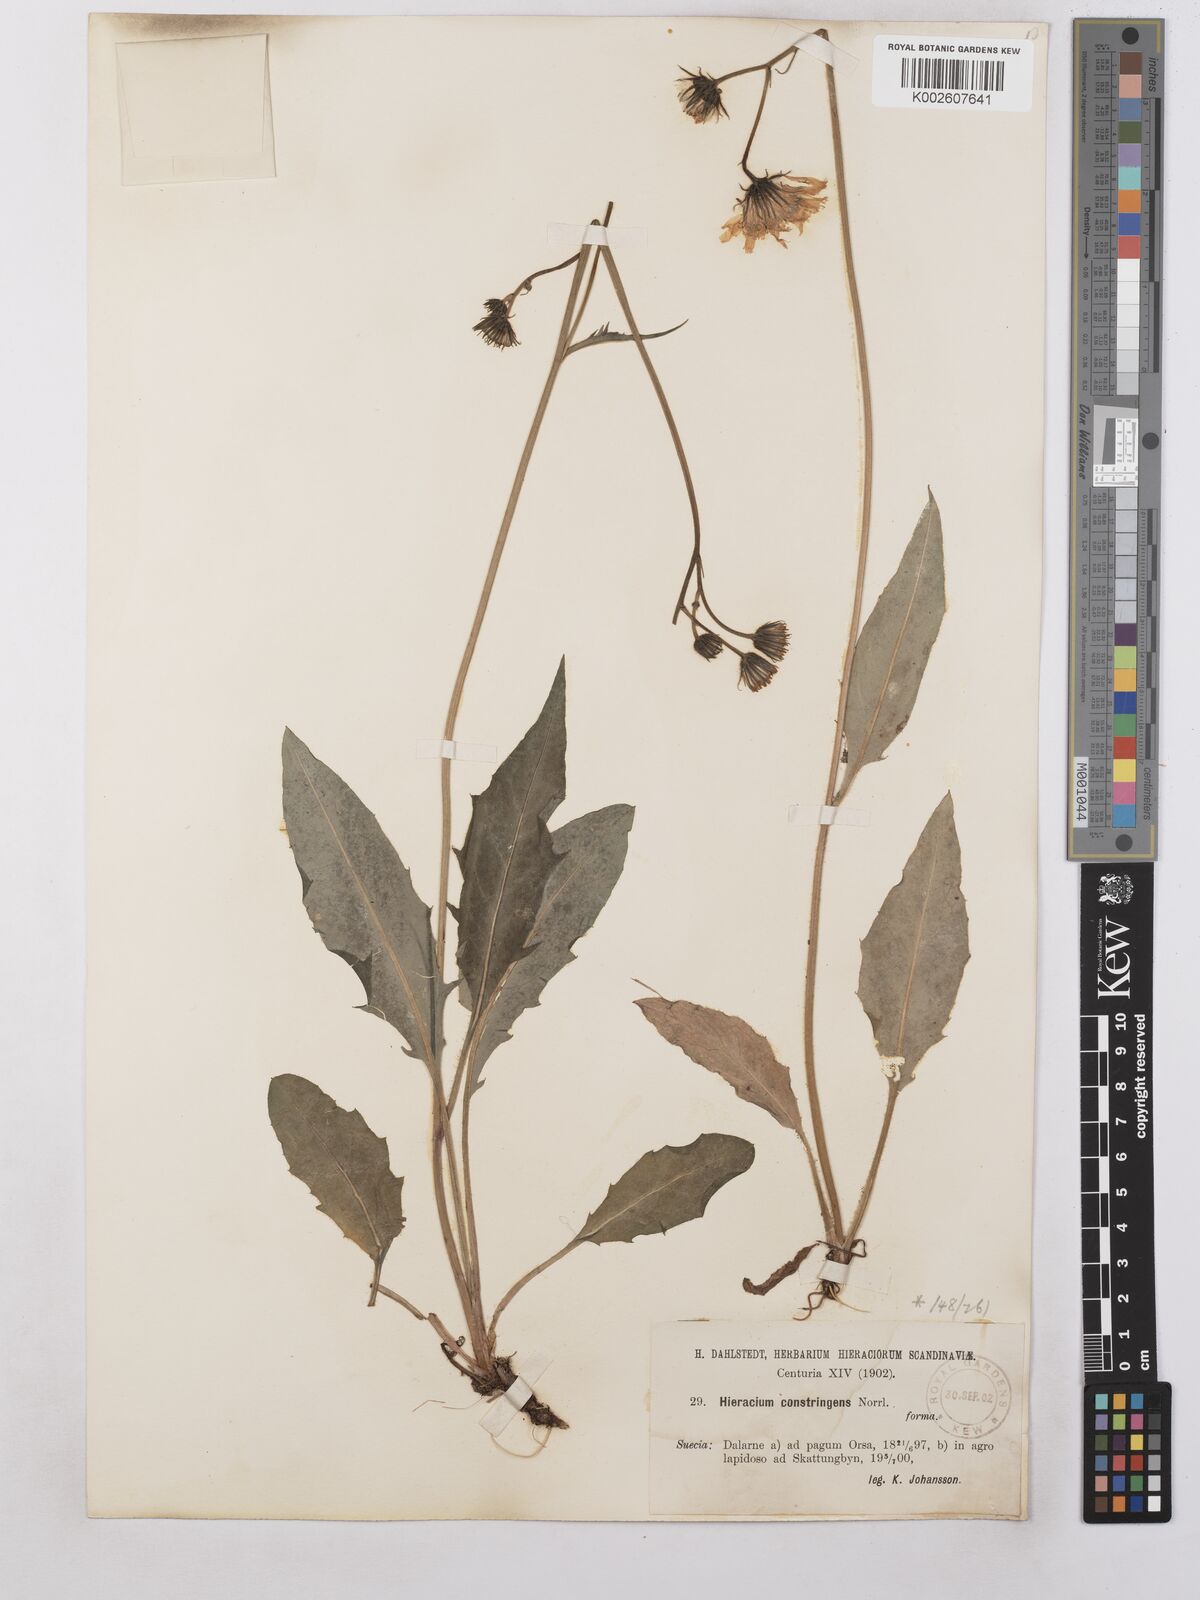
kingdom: Plantae
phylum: Tracheophyta
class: Magnoliopsida
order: Asterales
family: Asteraceae
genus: Hieracium
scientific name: Hieracium constringens
